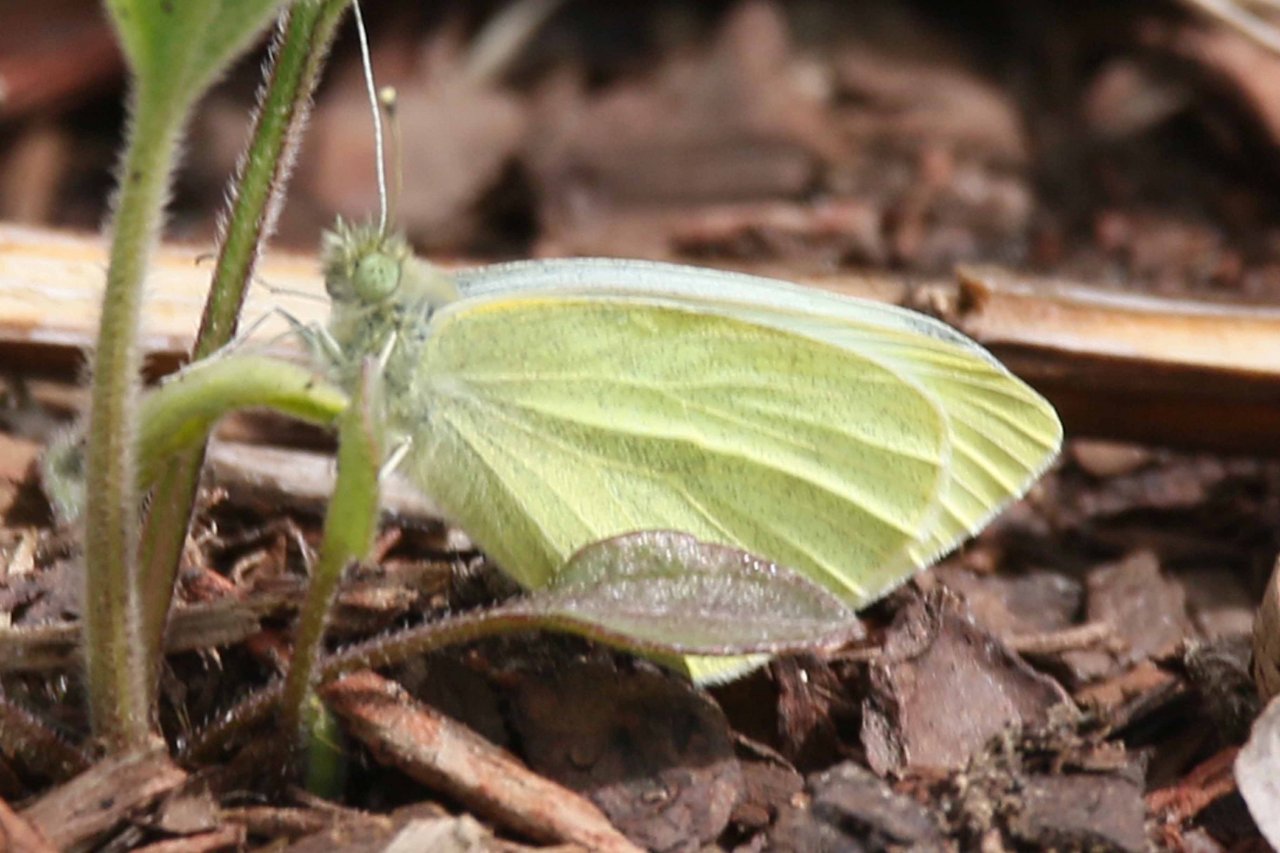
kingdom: Animalia
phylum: Arthropoda
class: Insecta
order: Lepidoptera
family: Pieridae
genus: Pieris
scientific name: Pieris rapae
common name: Cabbage White
